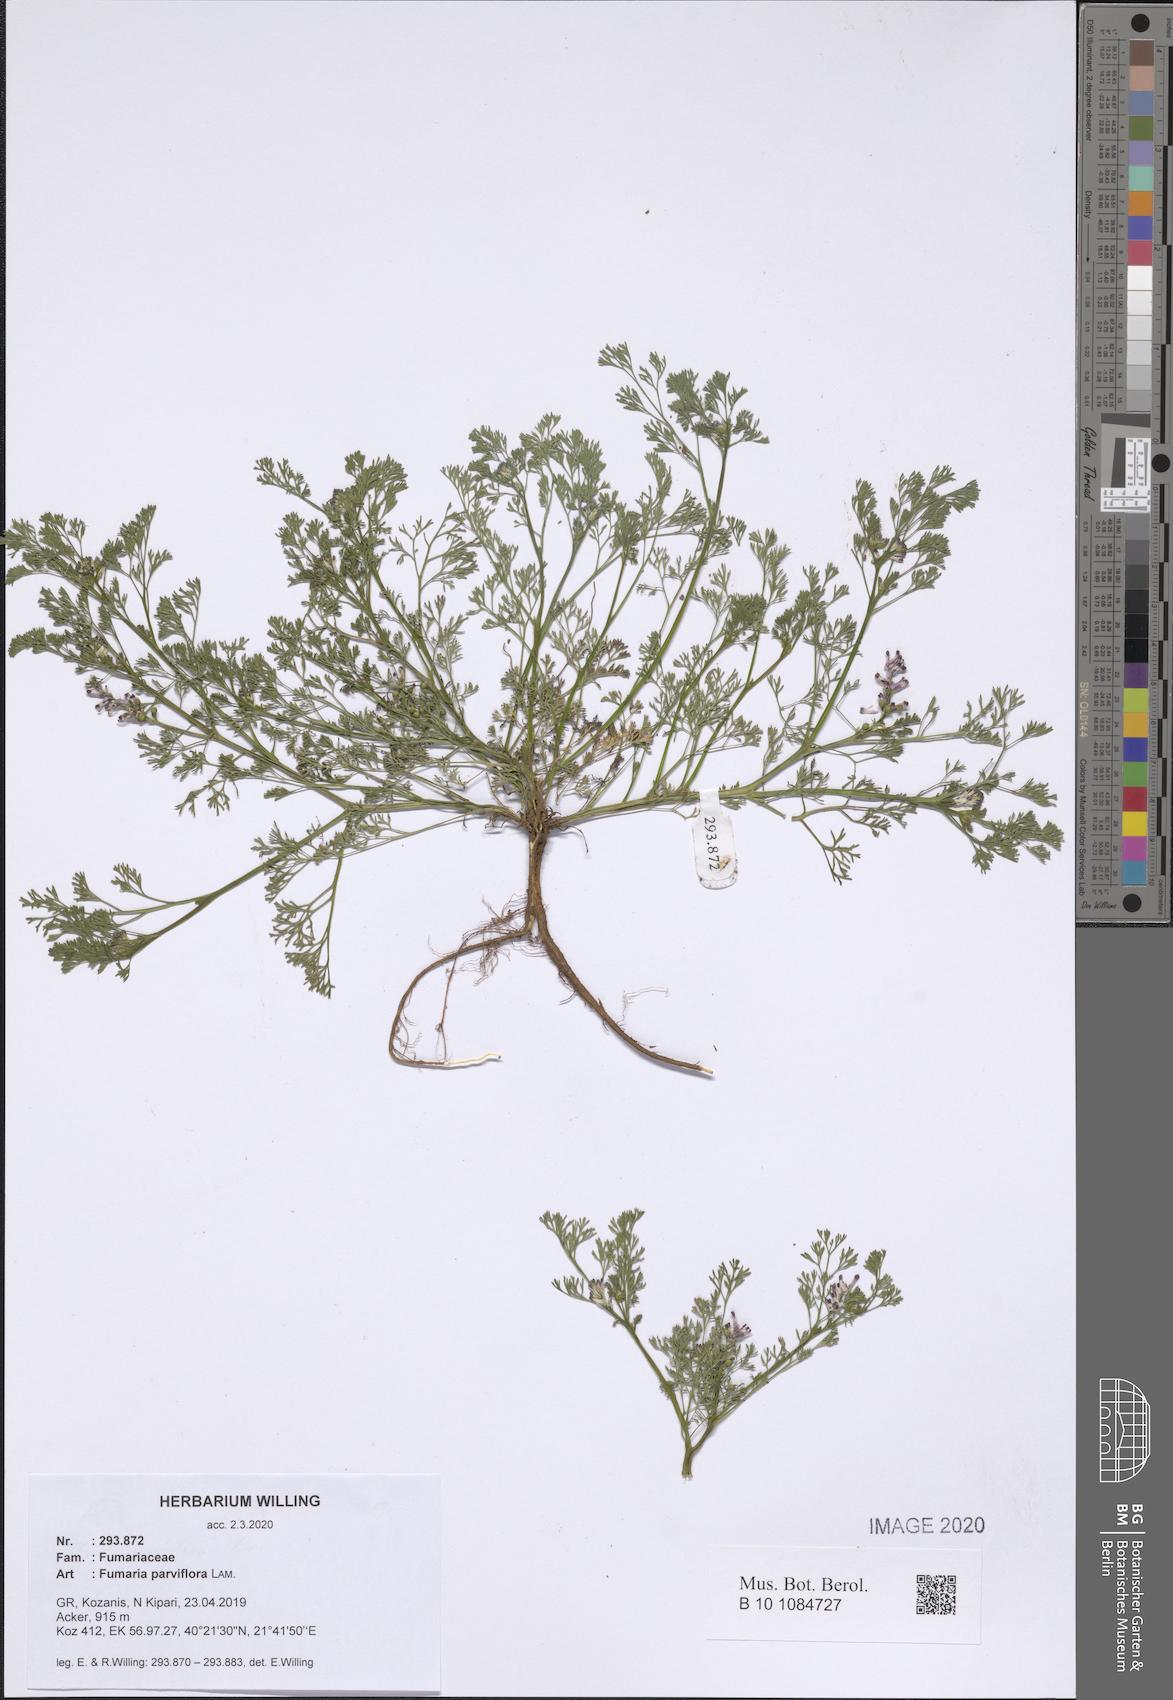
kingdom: Plantae
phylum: Tracheophyta
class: Magnoliopsida
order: Ranunculales
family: Papaveraceae
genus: Fumaria
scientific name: Fumaria parviflora
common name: Fine-leaved fumitory
